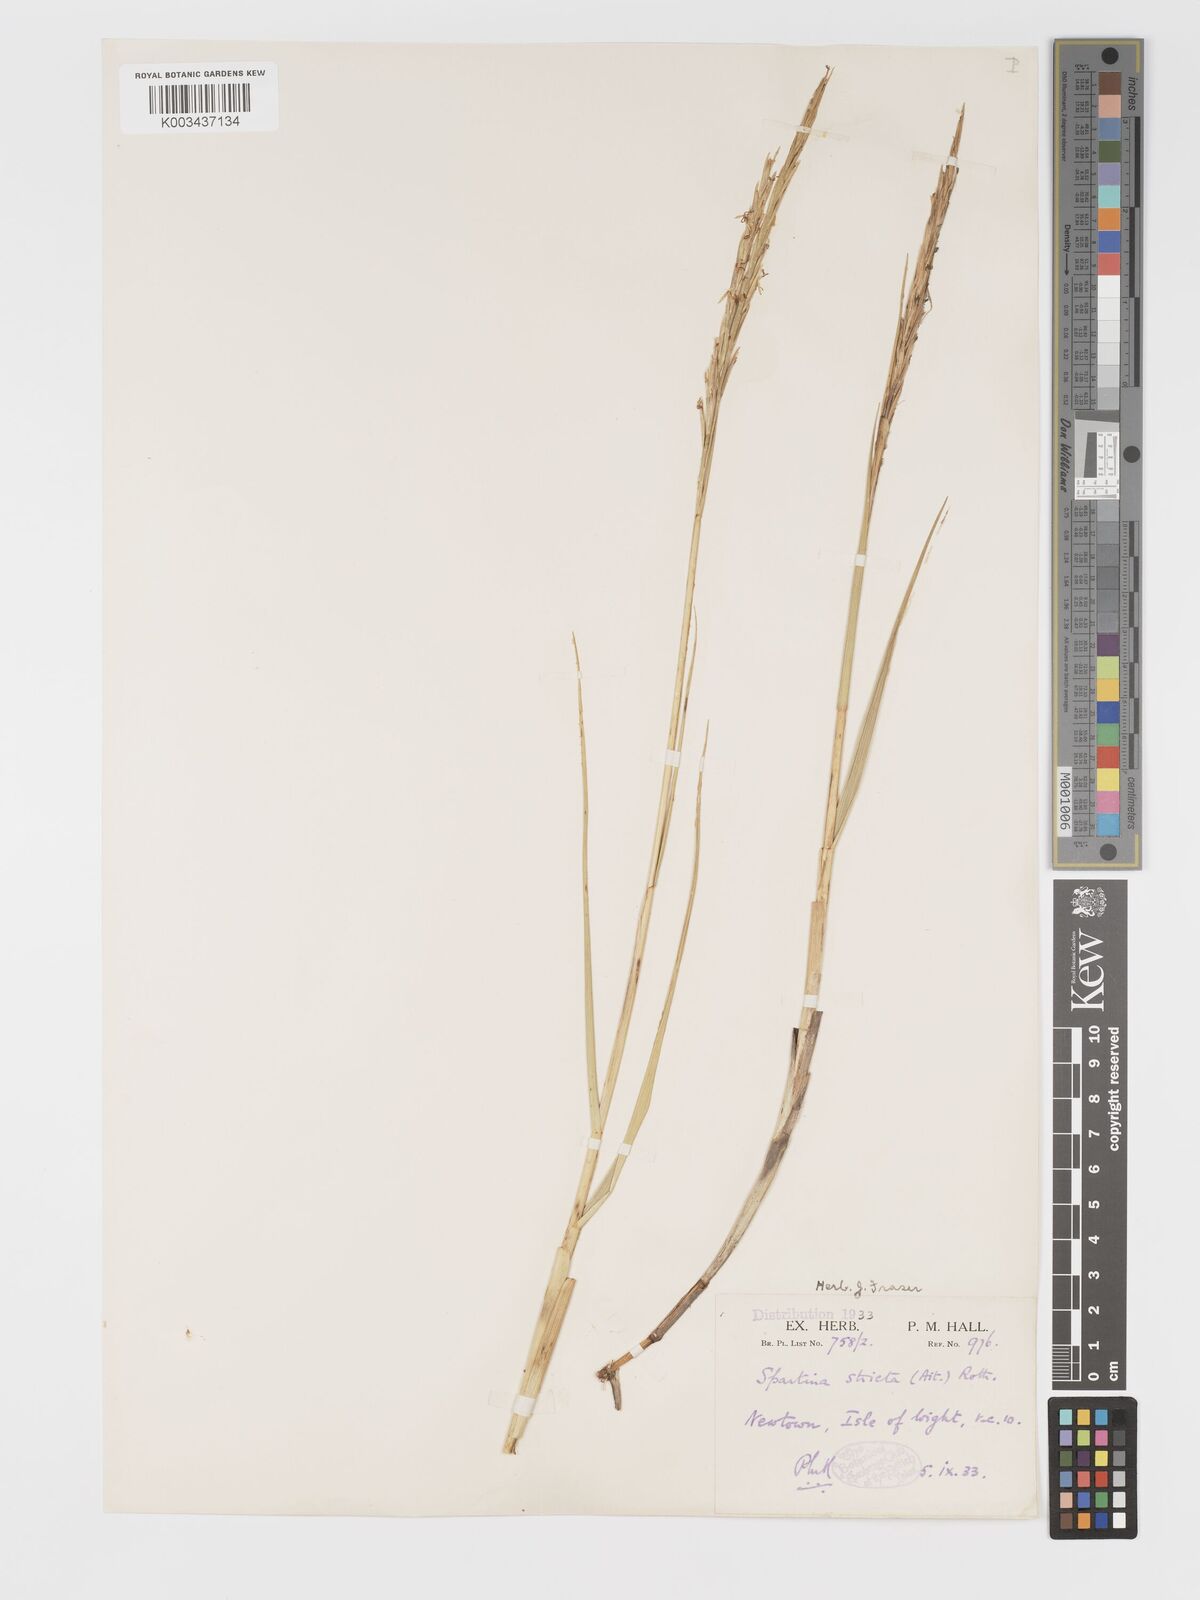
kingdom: Plantae
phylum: Tracheophyta
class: Liliopsida
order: Poales
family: Poaceae
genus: Sporobolus
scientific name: Sporobolus maritimus
